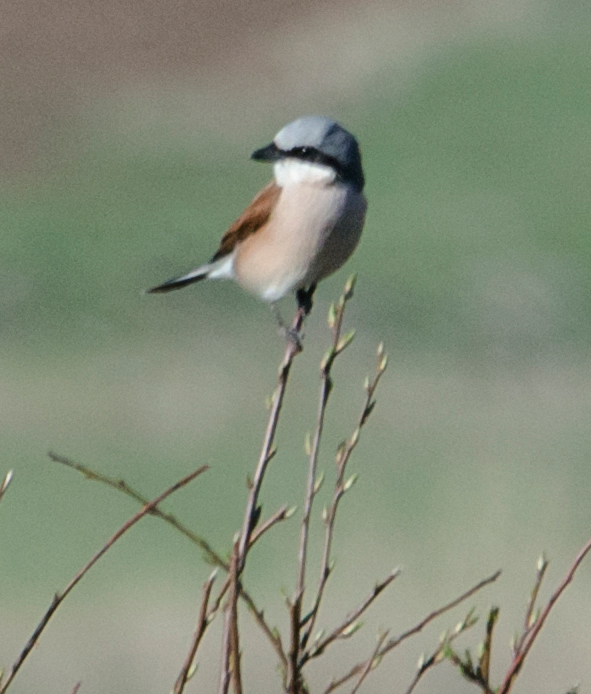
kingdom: Animalia
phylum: Chordata
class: Aves
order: Passeriformes
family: Laniidae
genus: Lanius
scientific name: Lanius collurio
